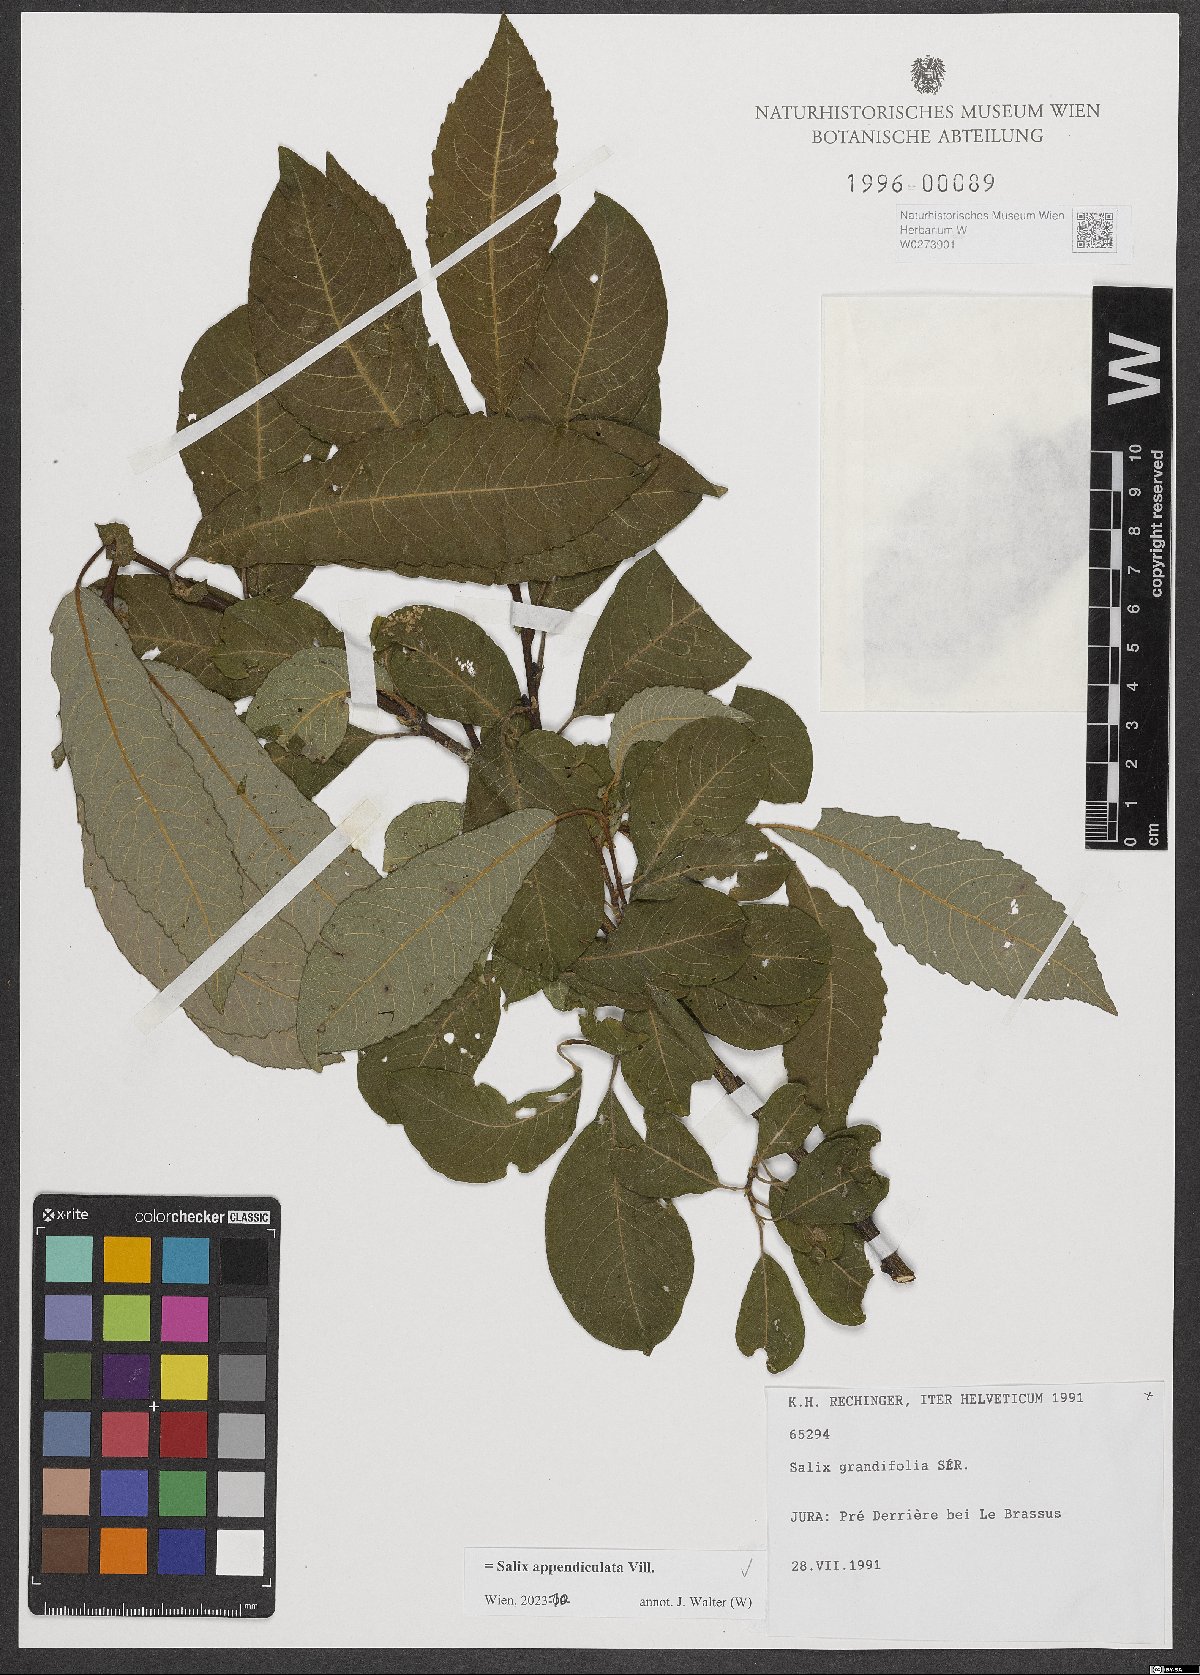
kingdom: Plantae
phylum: Tracheophyta
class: Magnoliopsida
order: Malpighiales
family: Salicaceae
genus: Salix
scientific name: Salix appendiculata
